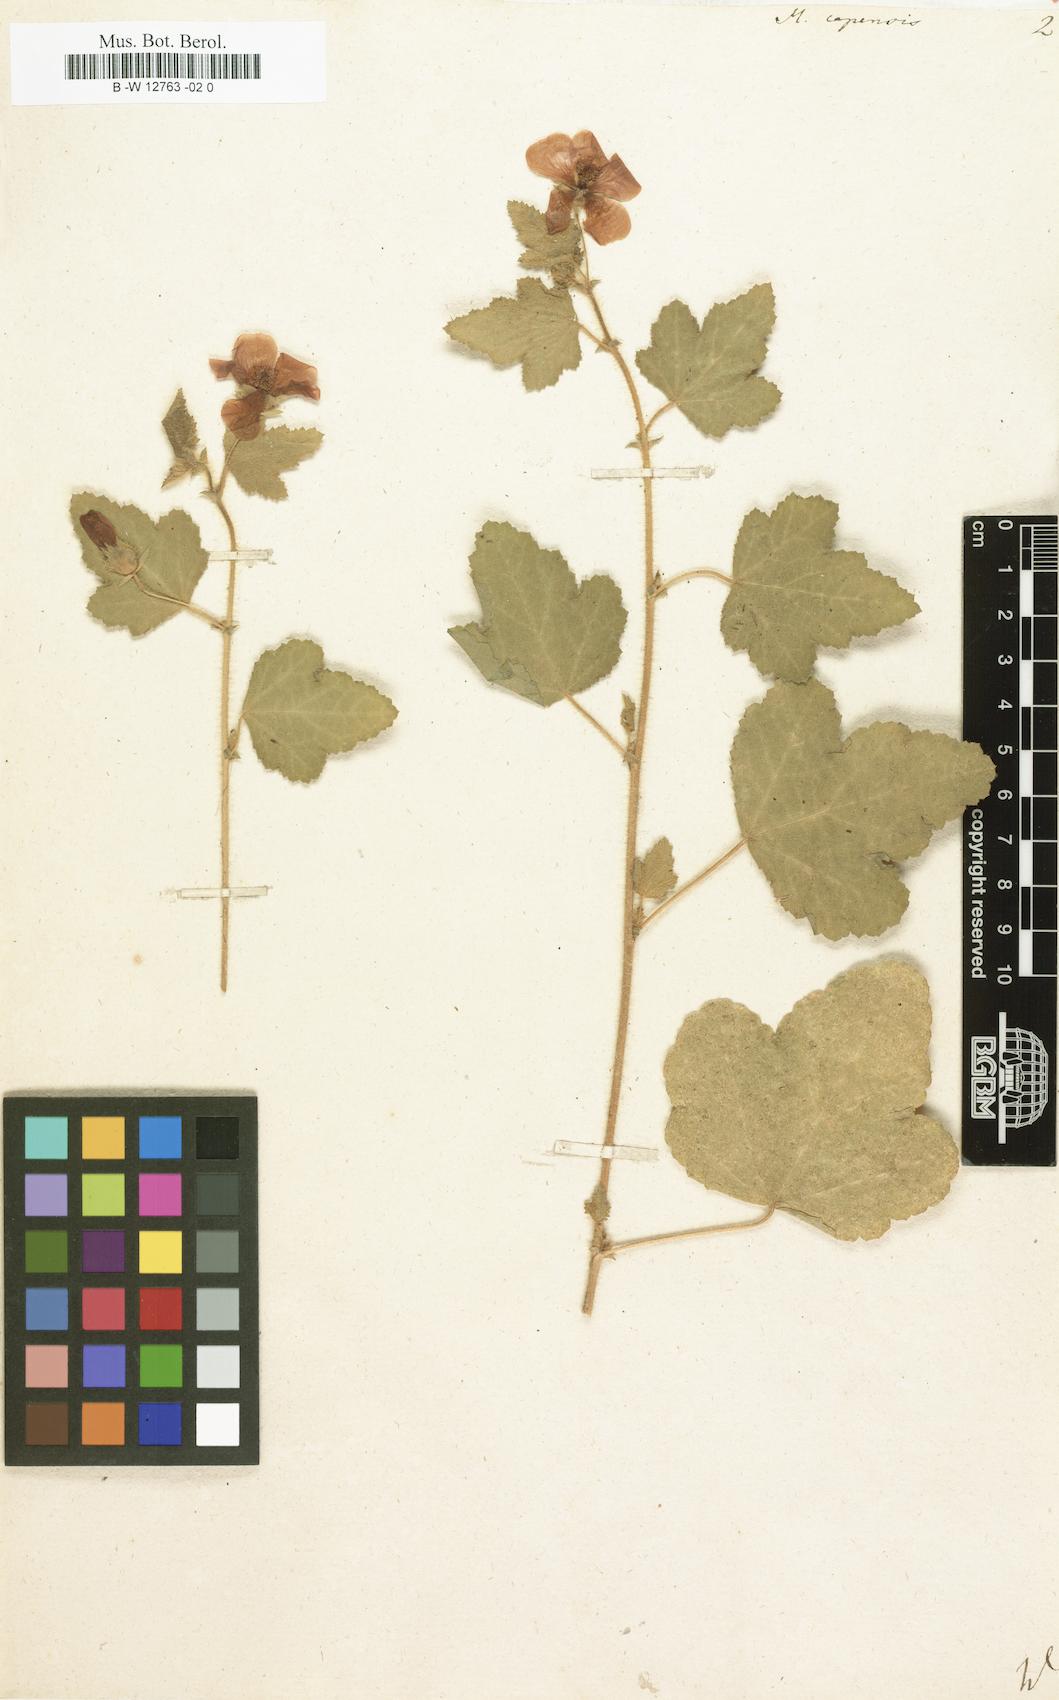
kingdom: Plantae
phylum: Tracheophyta
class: Magnoliopsida
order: Malvales
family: Malvaceae
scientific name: Malvaceae
